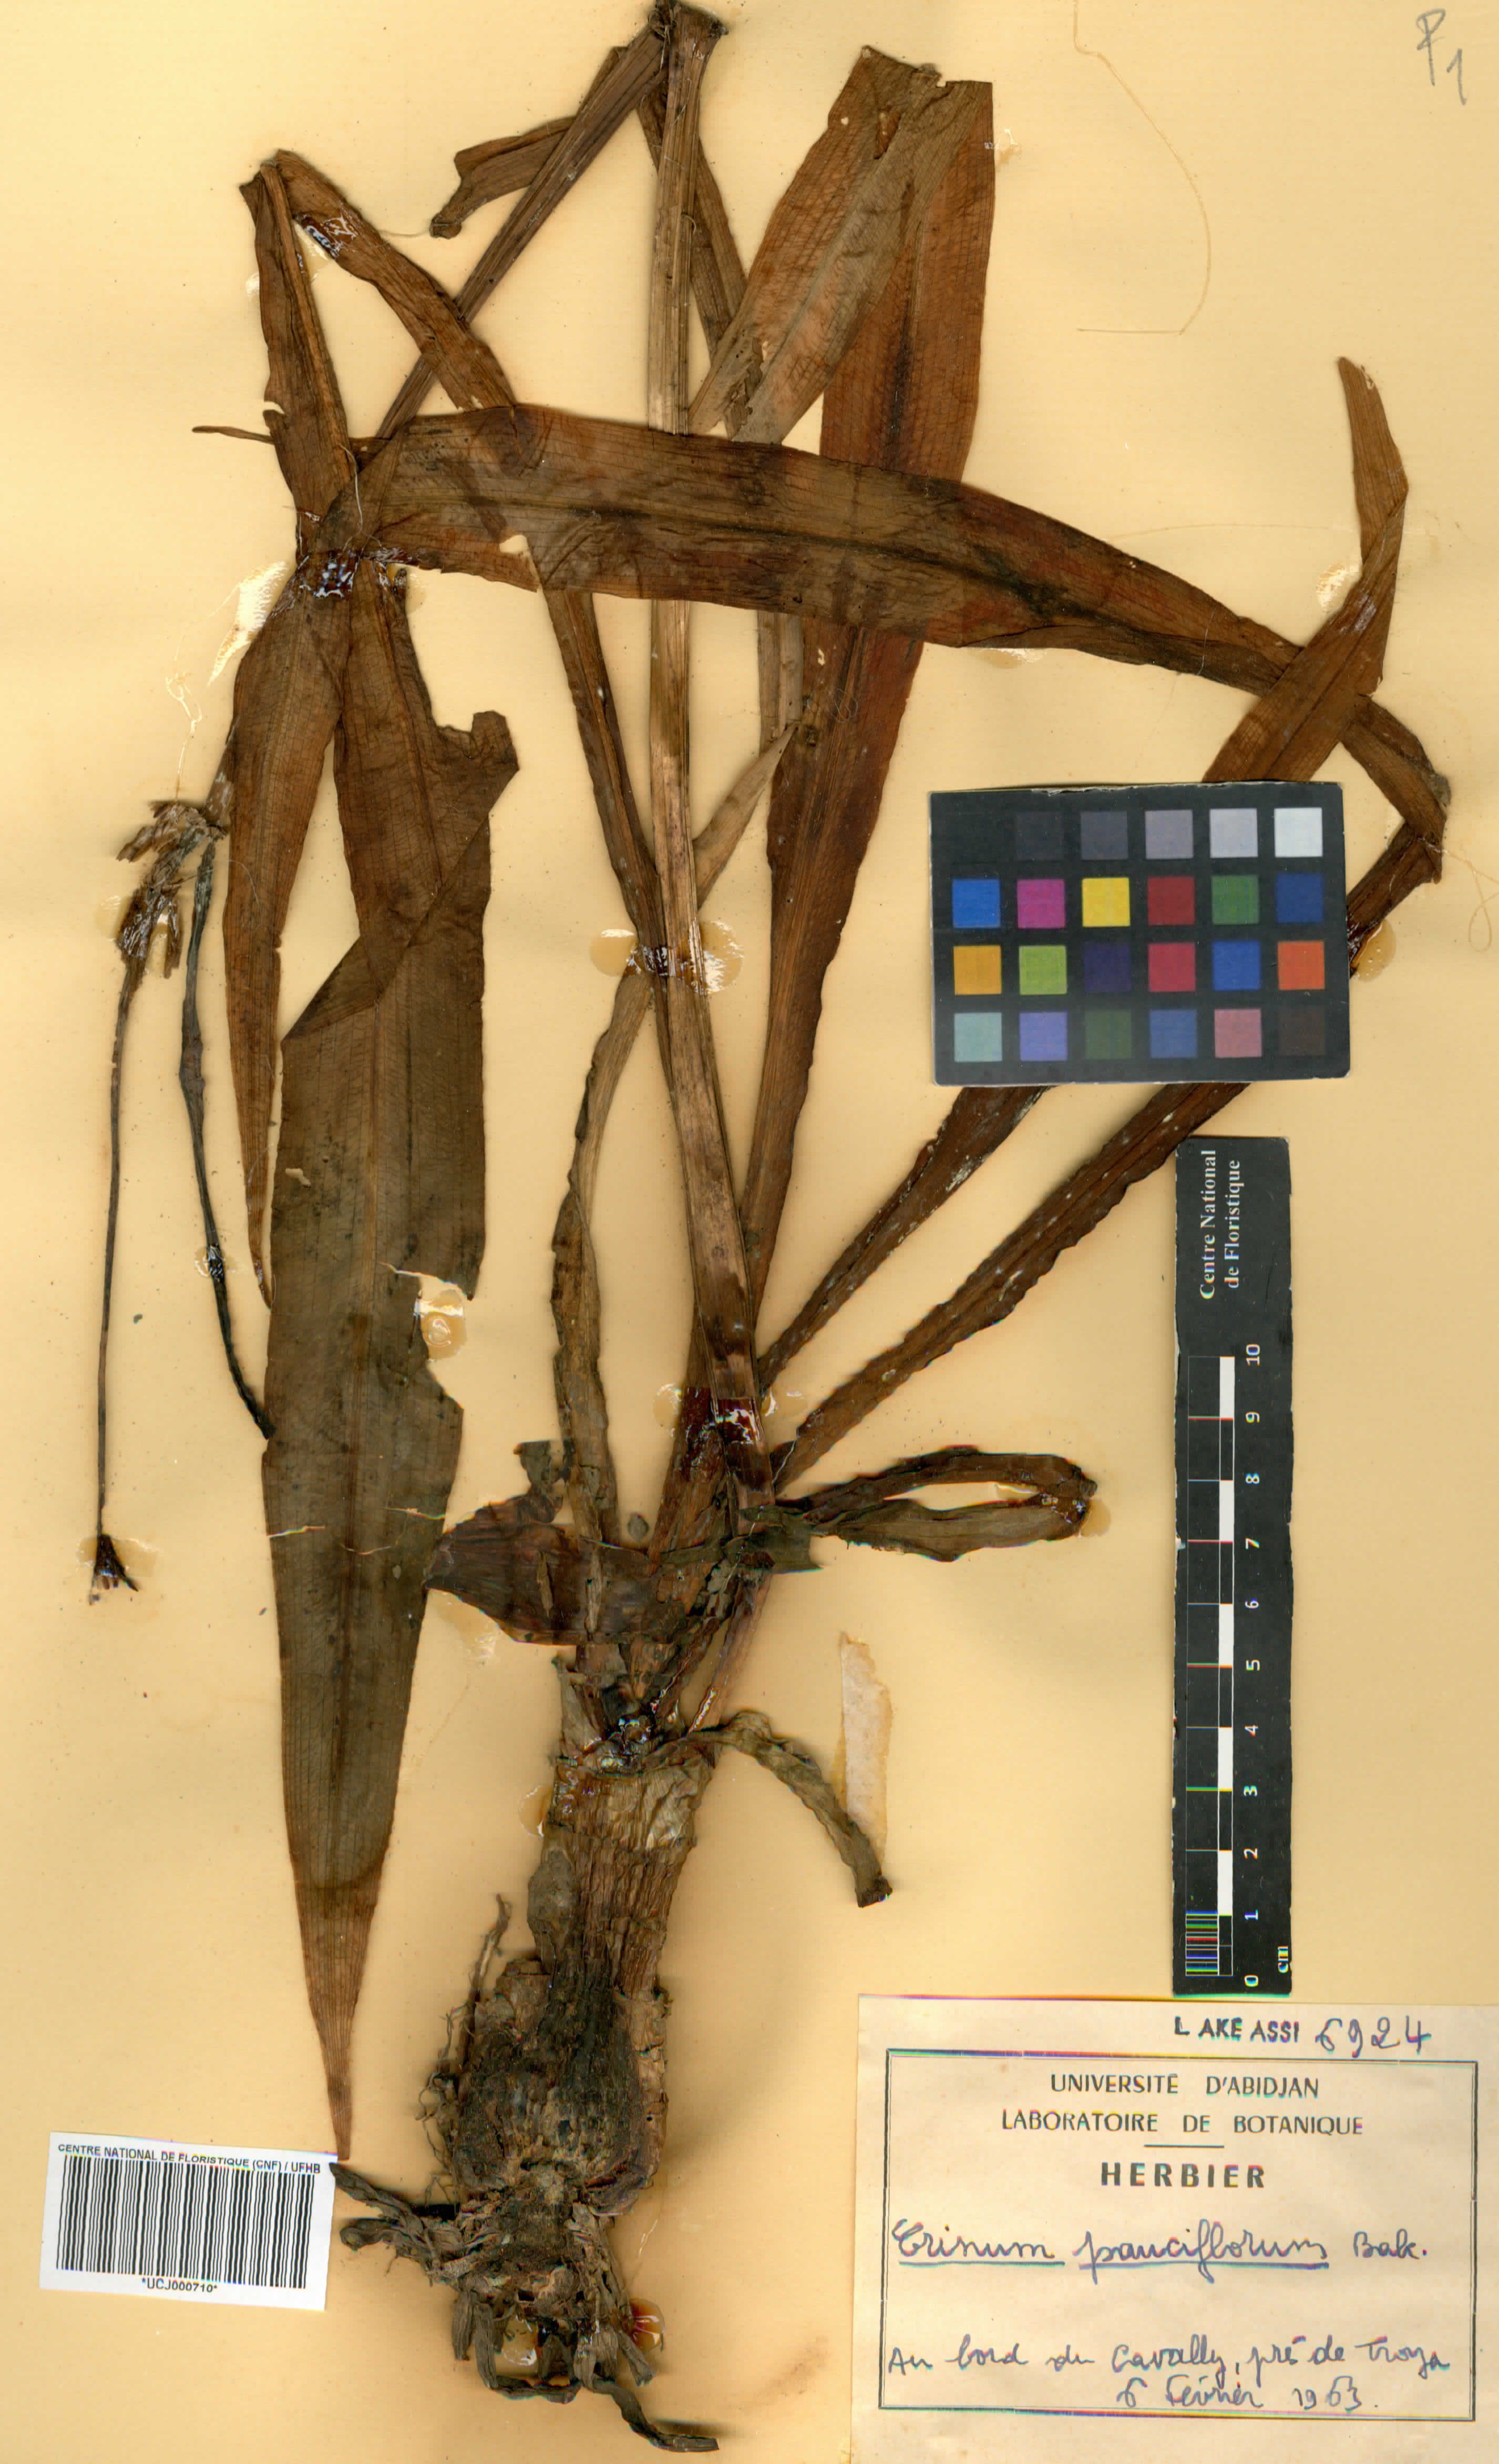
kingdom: Plantae
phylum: Tracheophyta
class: Liliopsida
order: Asparagales
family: Amaryllidaceae
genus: Crinum
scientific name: Crinum
